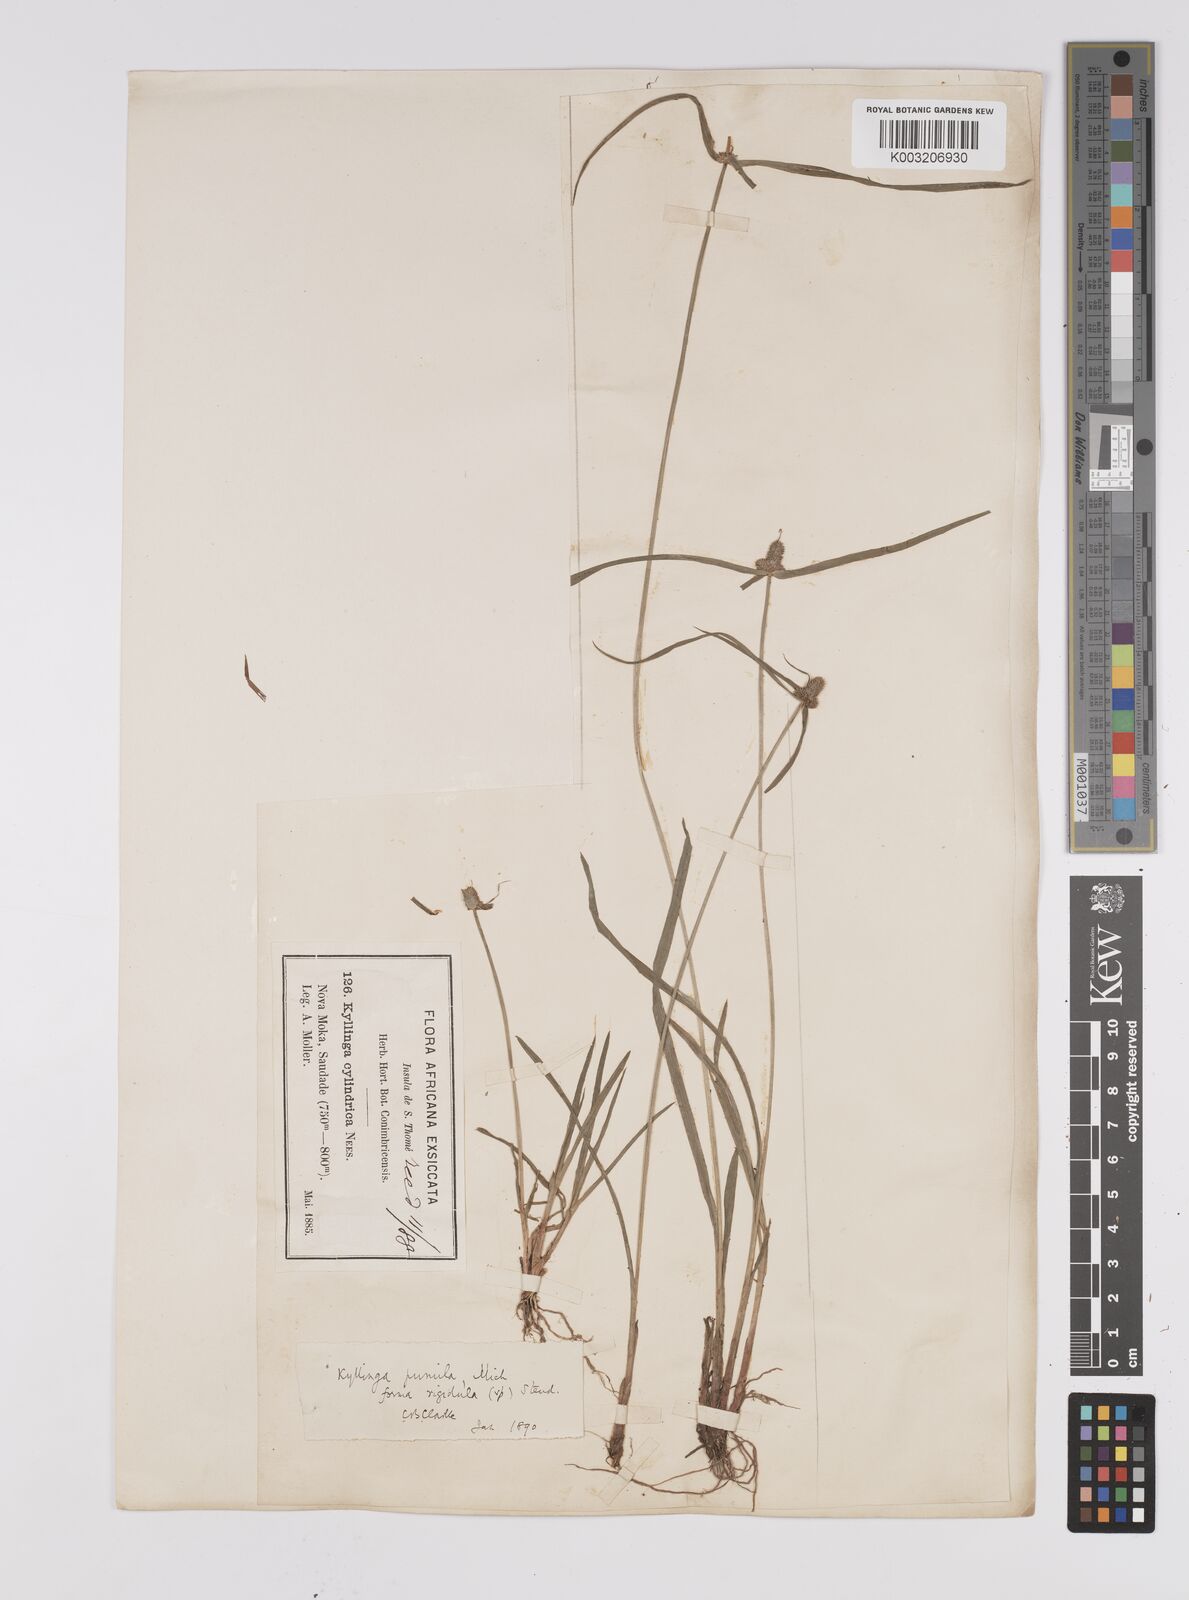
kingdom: Plantae
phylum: Tracheophyta
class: Liliopsida
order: Poales
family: Cyperaceae
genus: Cyperus
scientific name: Cyperus hortensis
